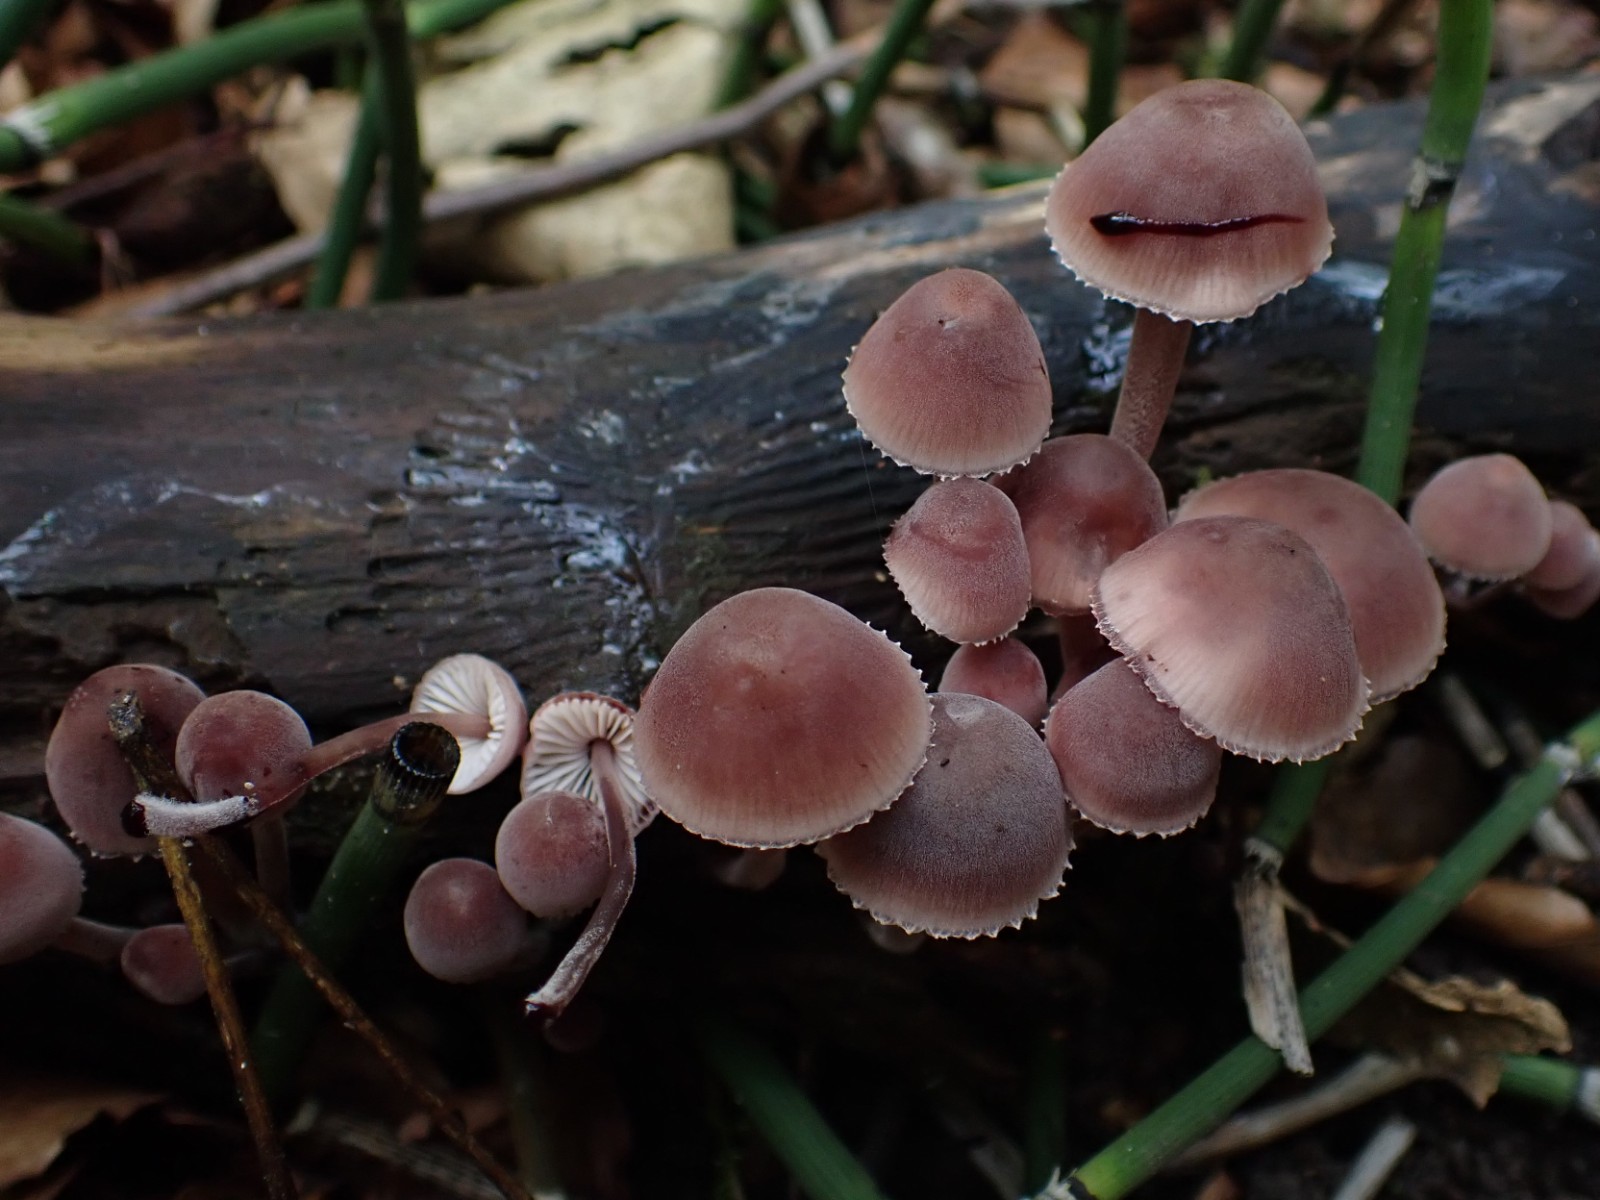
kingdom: Fungi
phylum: Basidiomycota
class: Agaricomycetes
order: Agaricales
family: Mycenaceae
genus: Mycena
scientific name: Mycena haematopus
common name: blødende huesvamp
